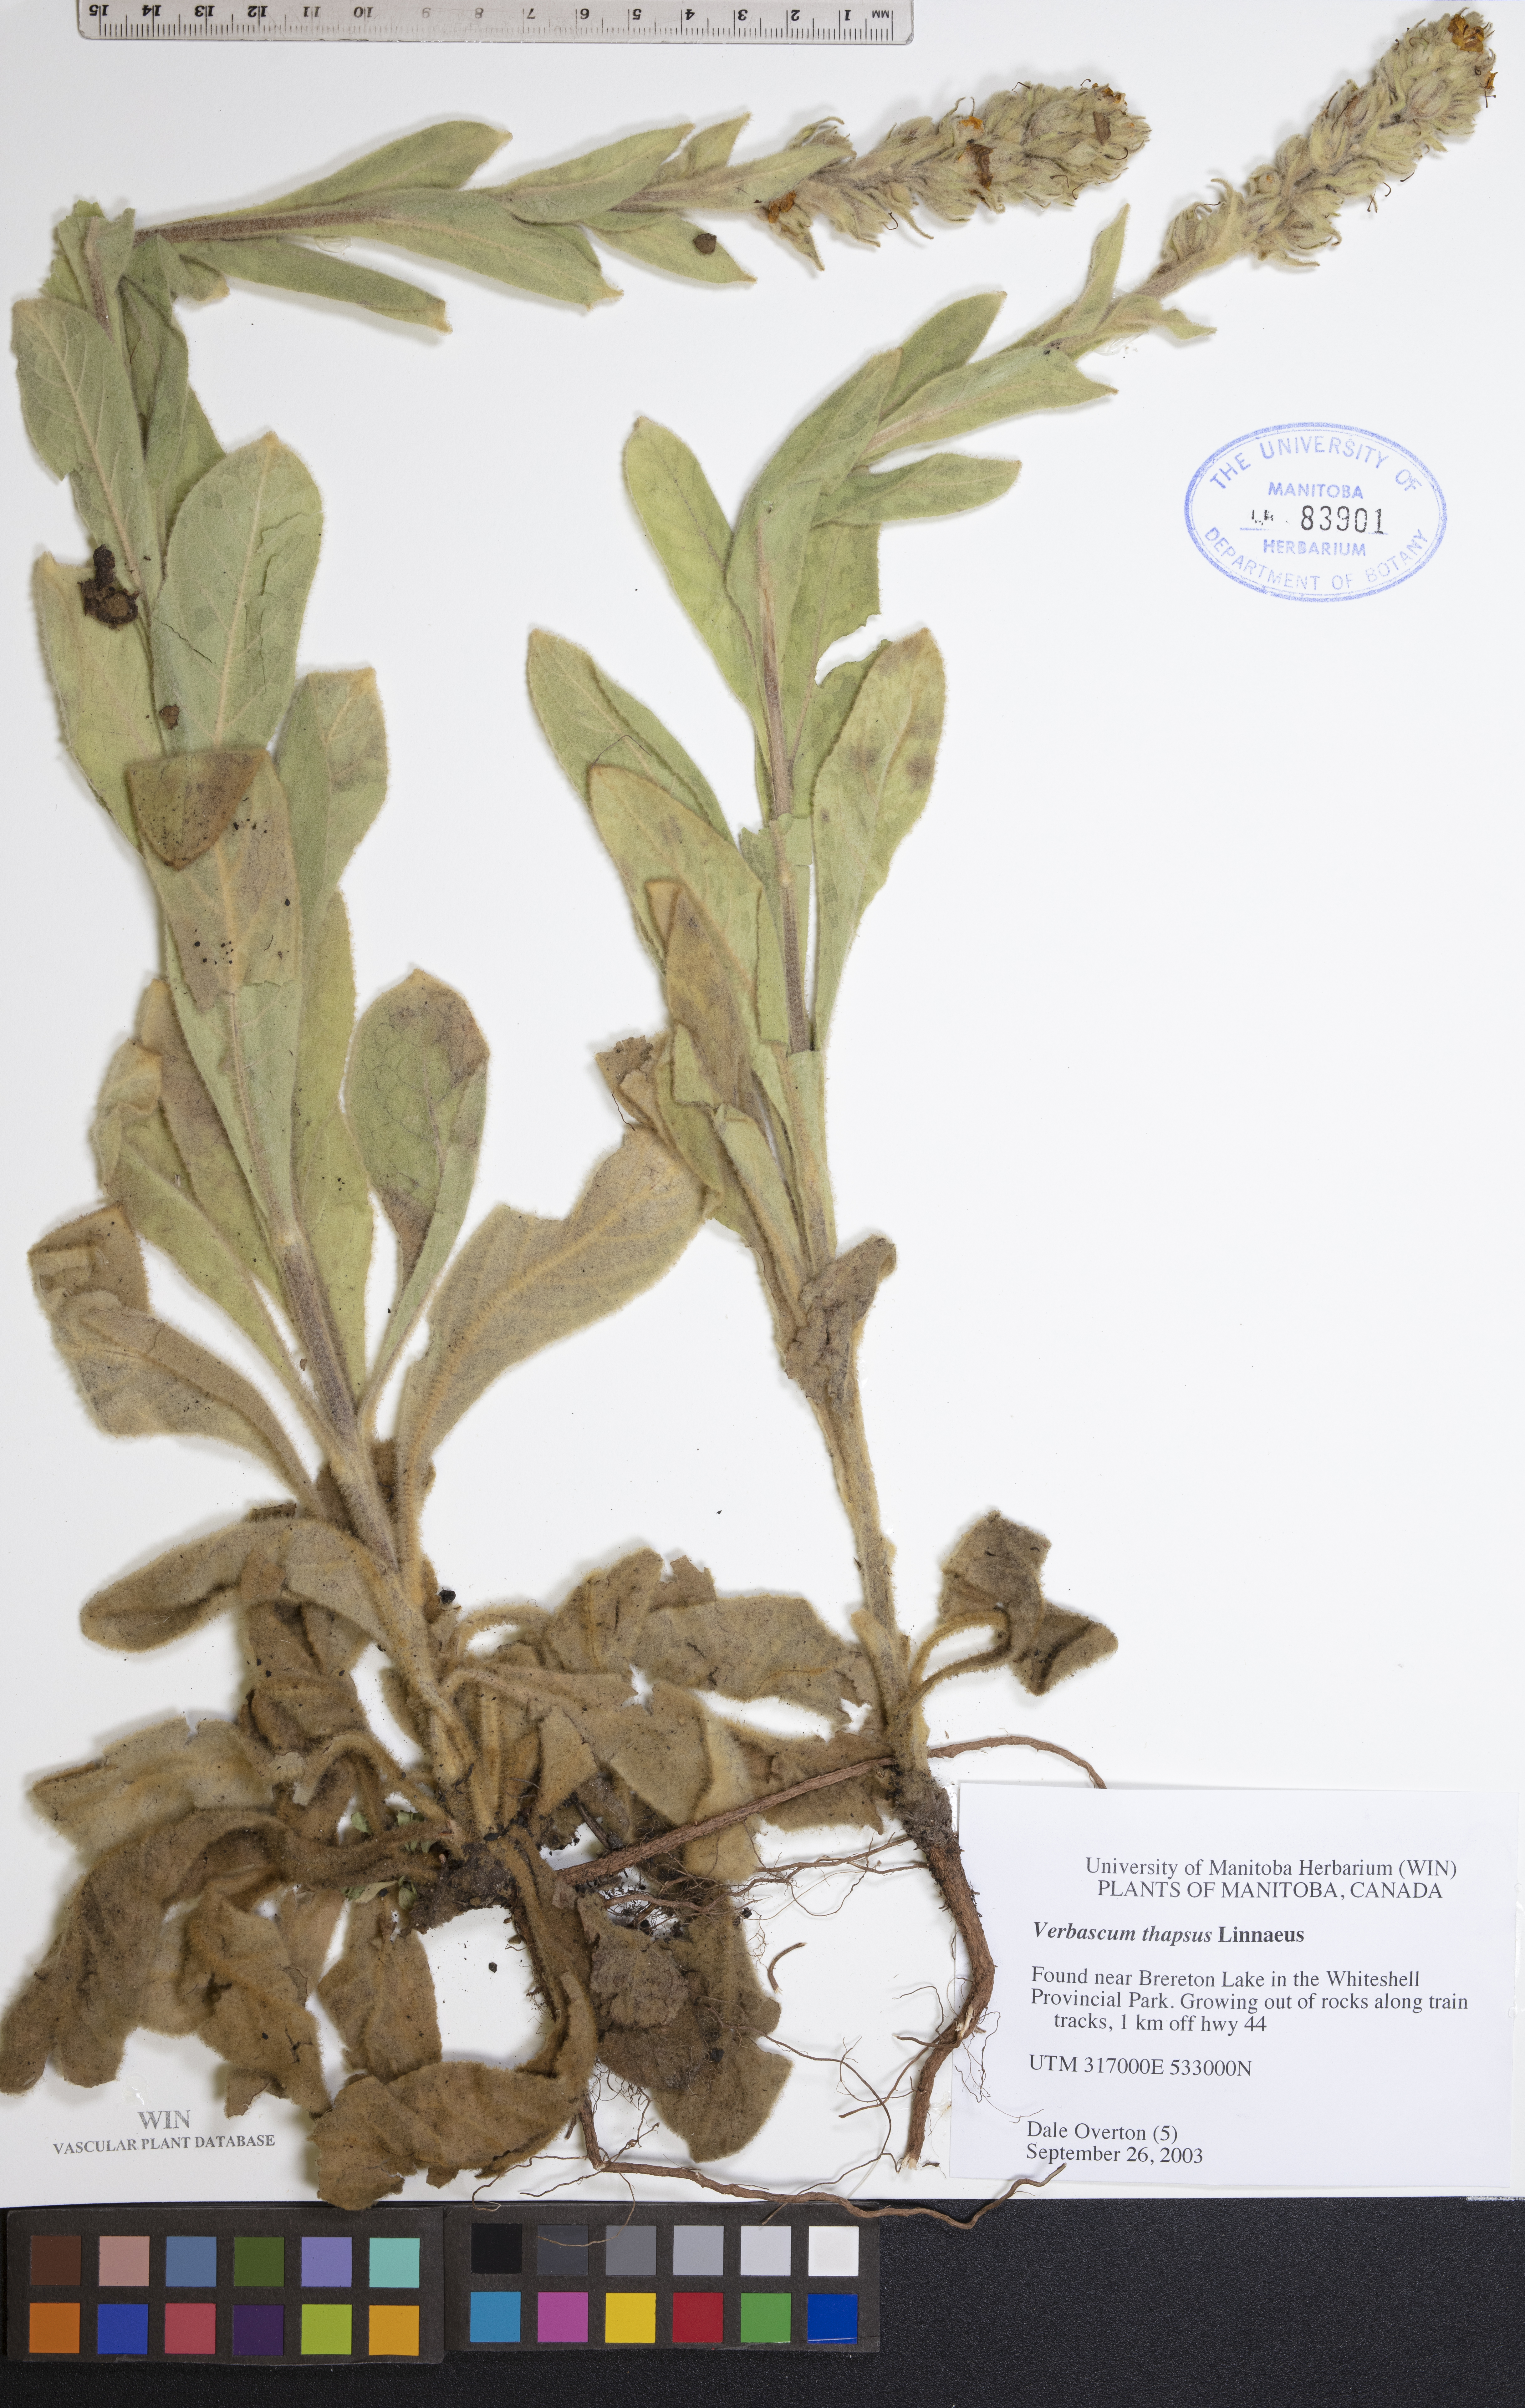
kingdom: Plantae
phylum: Tracheophyta
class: Magnoliopsida
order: Lamiales
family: Scrophulariaceae
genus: Verbascum
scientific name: Verbascum thapsus
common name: Common mullein
